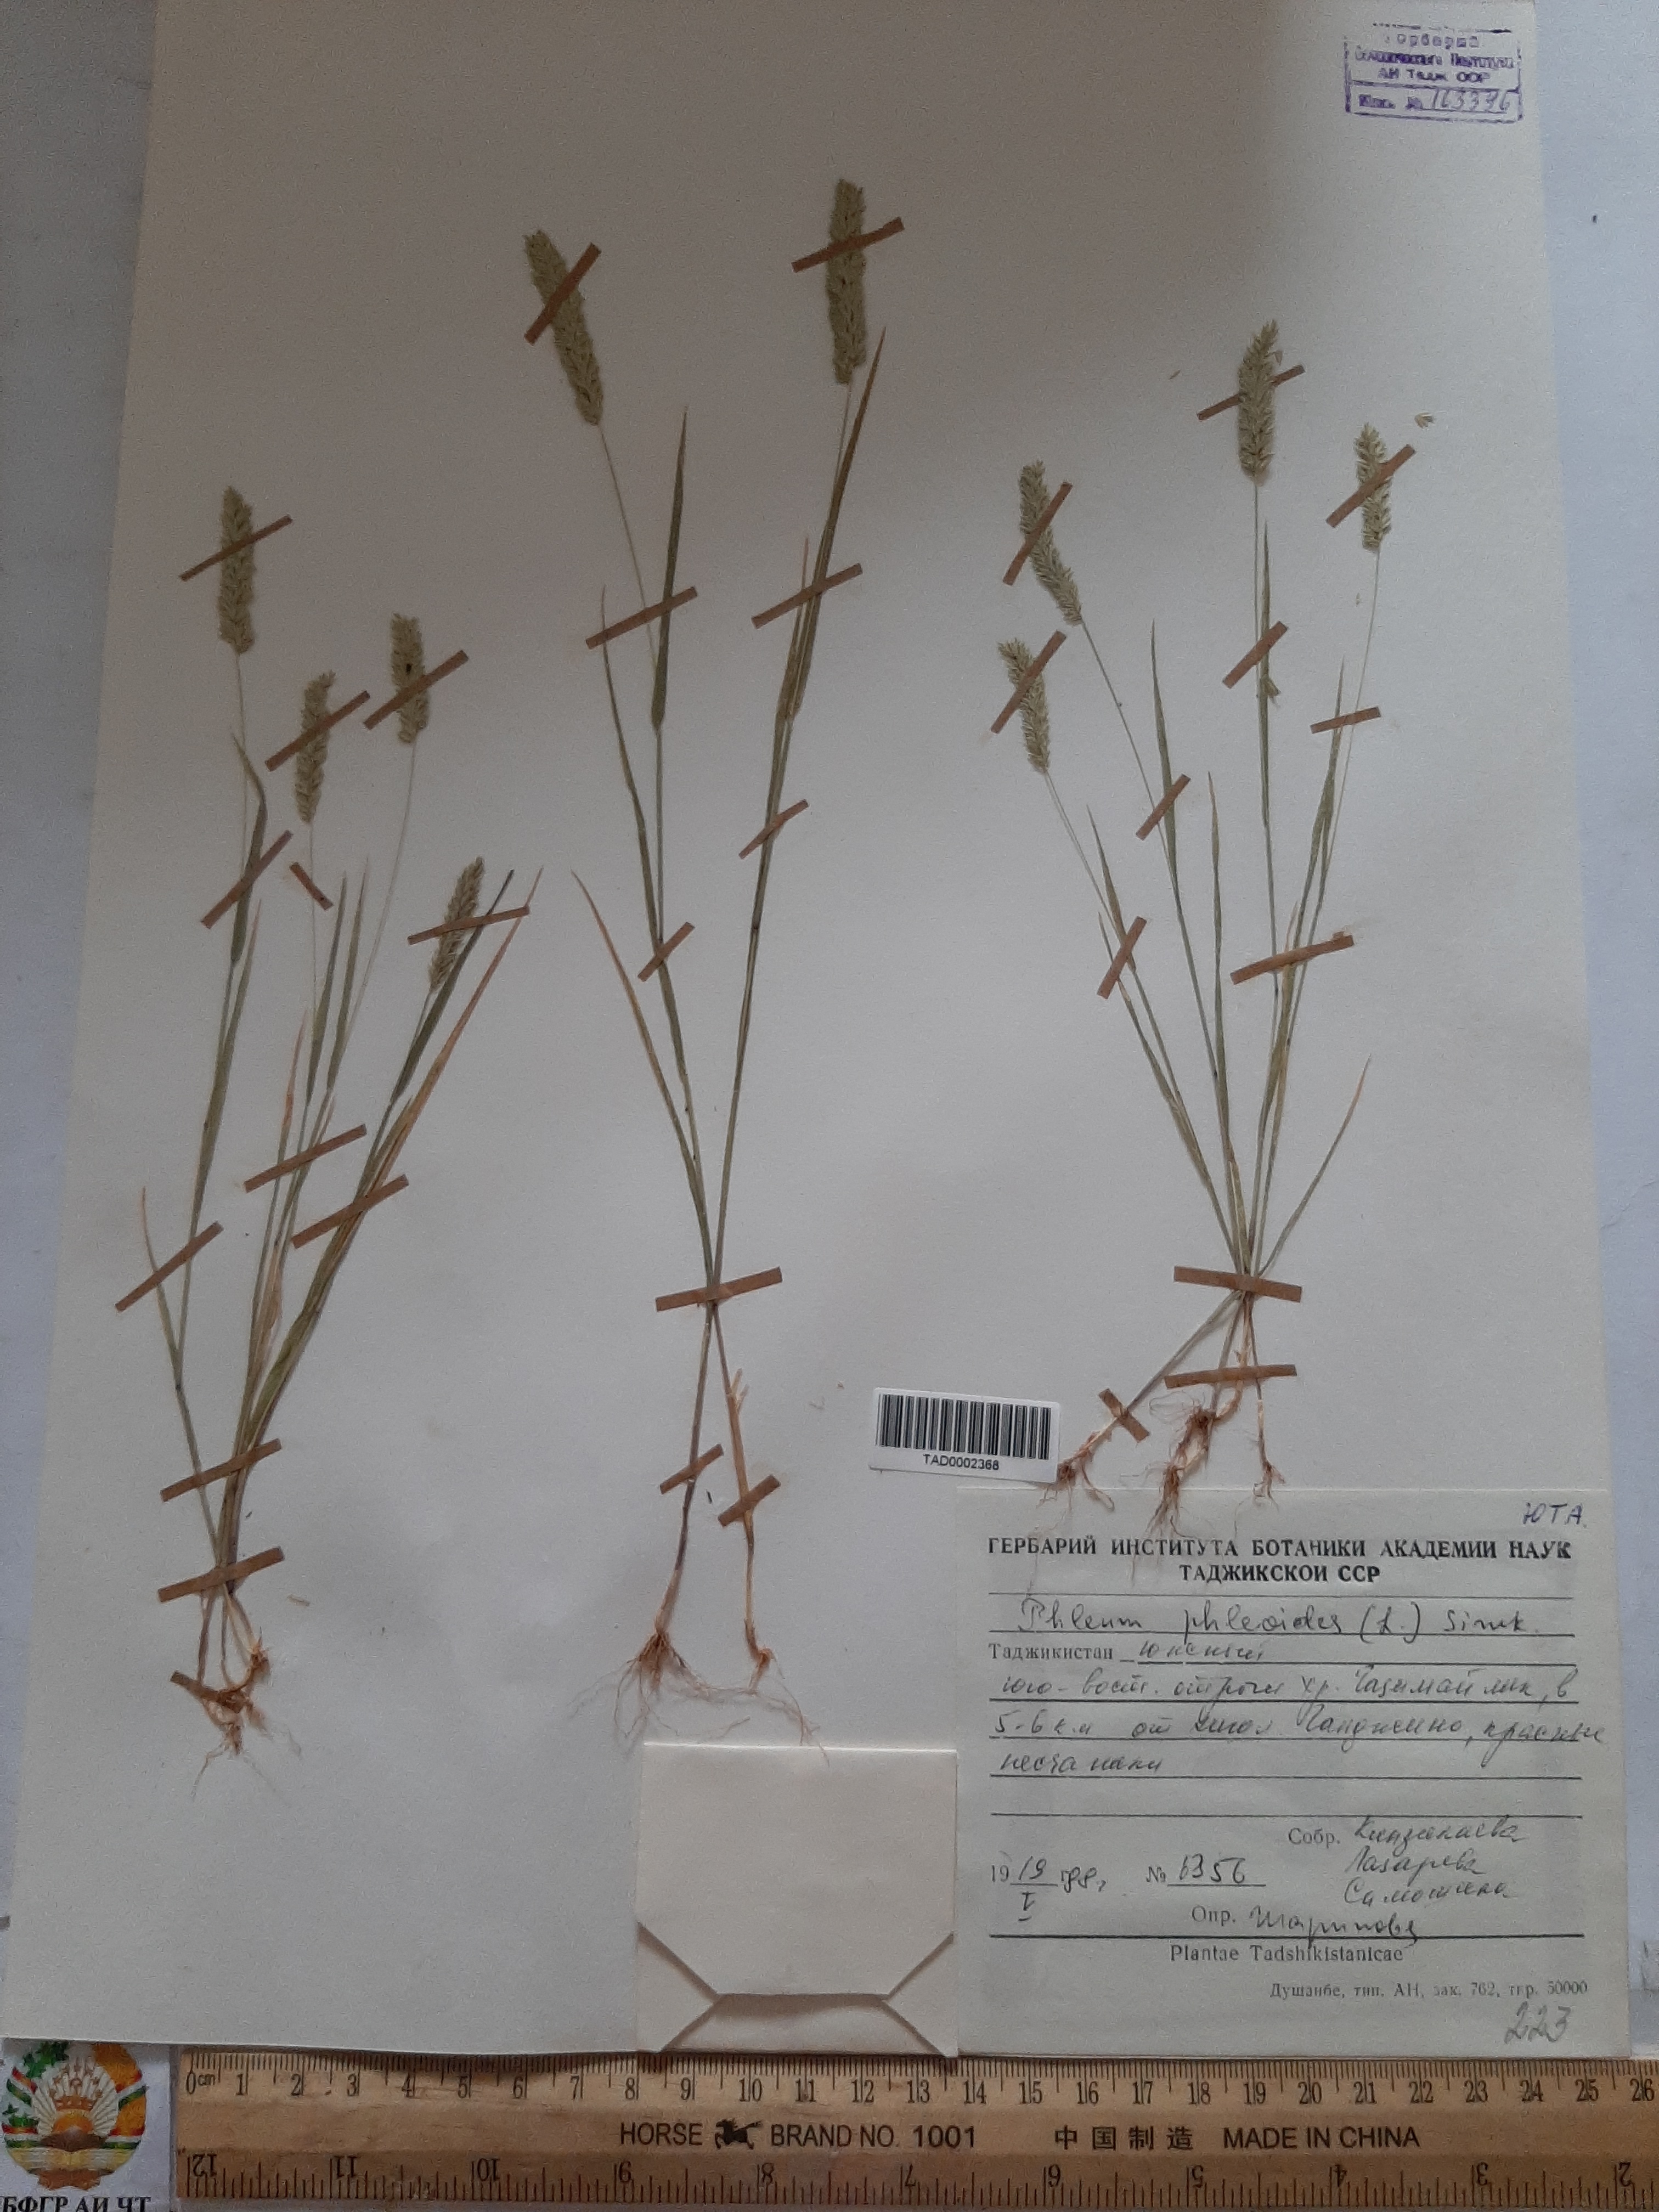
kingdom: Plantae
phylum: Tracheophyta
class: Liliopsida
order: Poales
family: Poaceae
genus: Phleum
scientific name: Phleum phleoides
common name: Purple-stem cat's-tail
